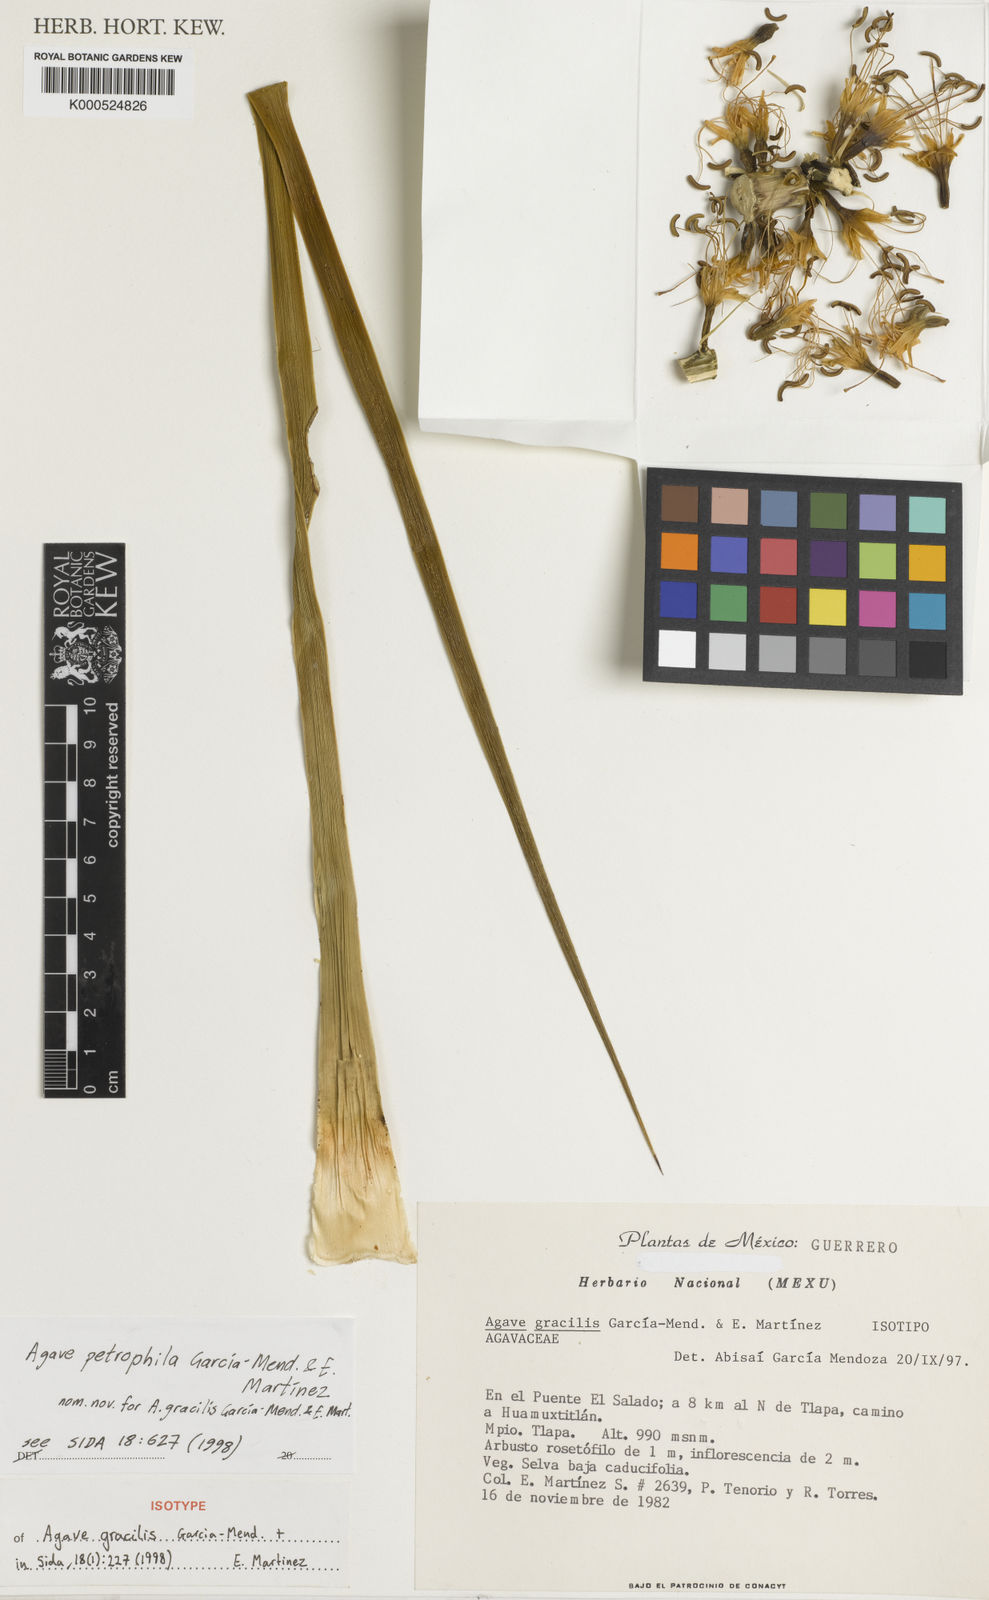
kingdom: Plantae
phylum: Tracheophyta
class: Liliopsida
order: Asparagales
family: Asparagaceae
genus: Agave
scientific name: Agave
